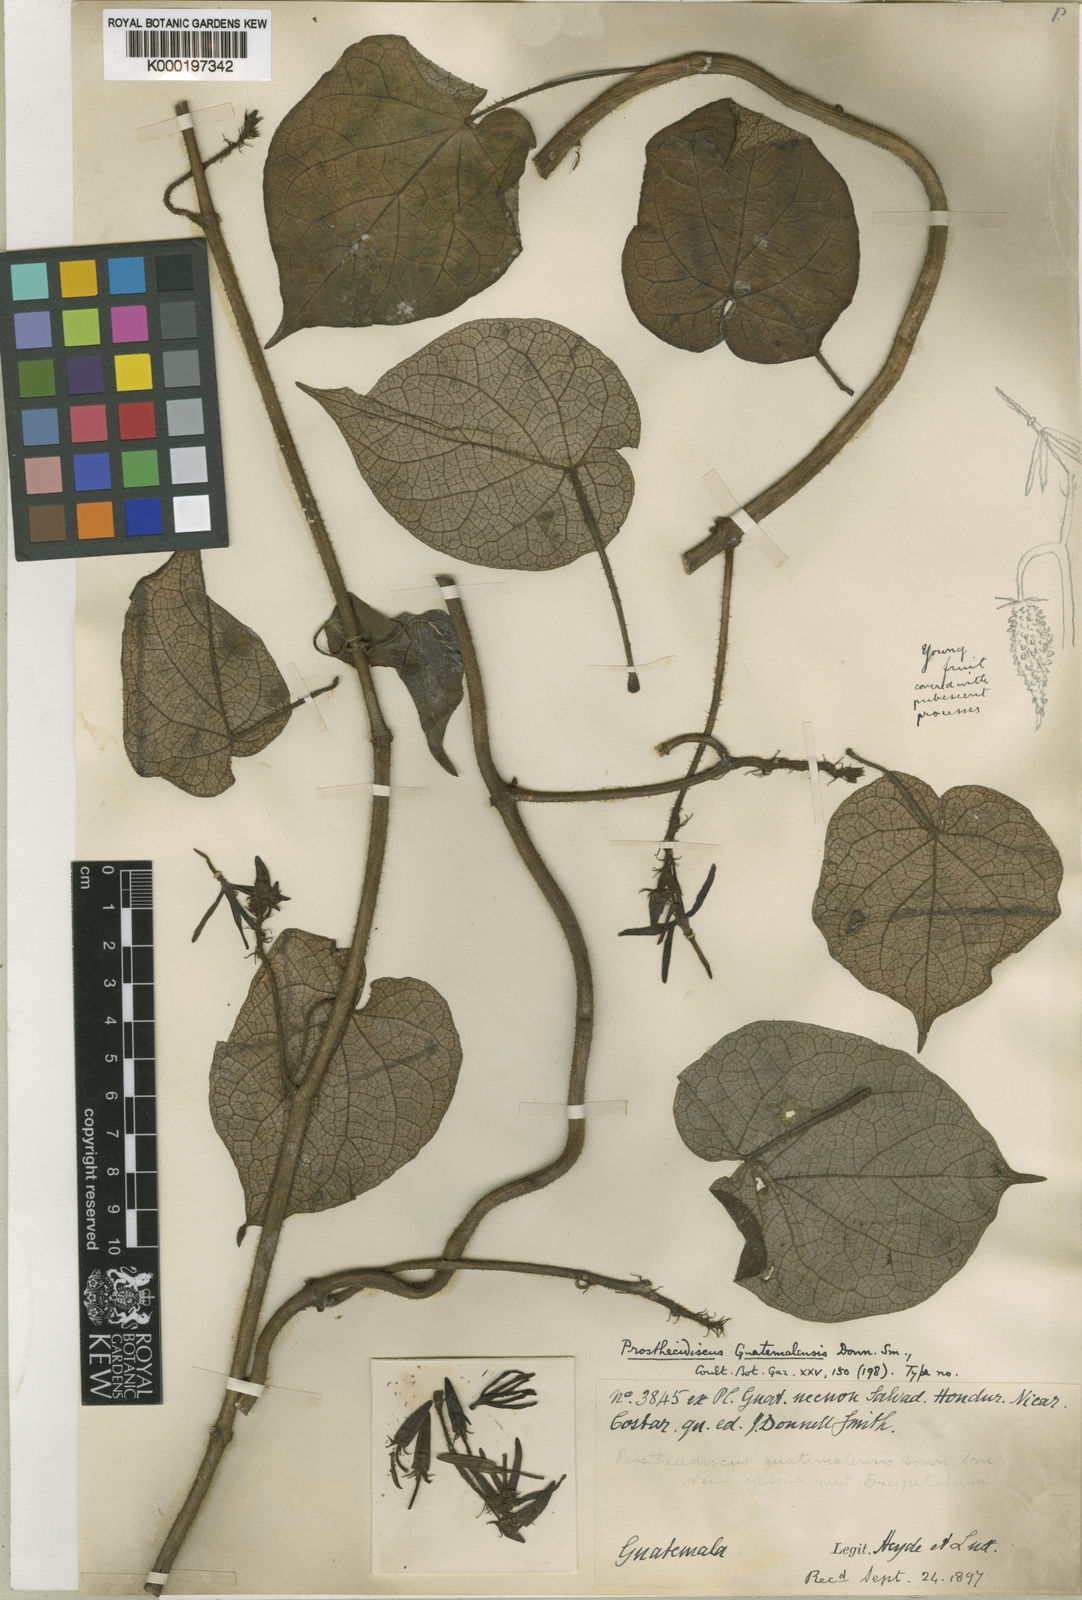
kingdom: Plantae
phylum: Tracheophyta
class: Magnoliopsida
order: Gentianales
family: Apocynaceae
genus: Matelea
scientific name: Matelea prosthecidiscus
